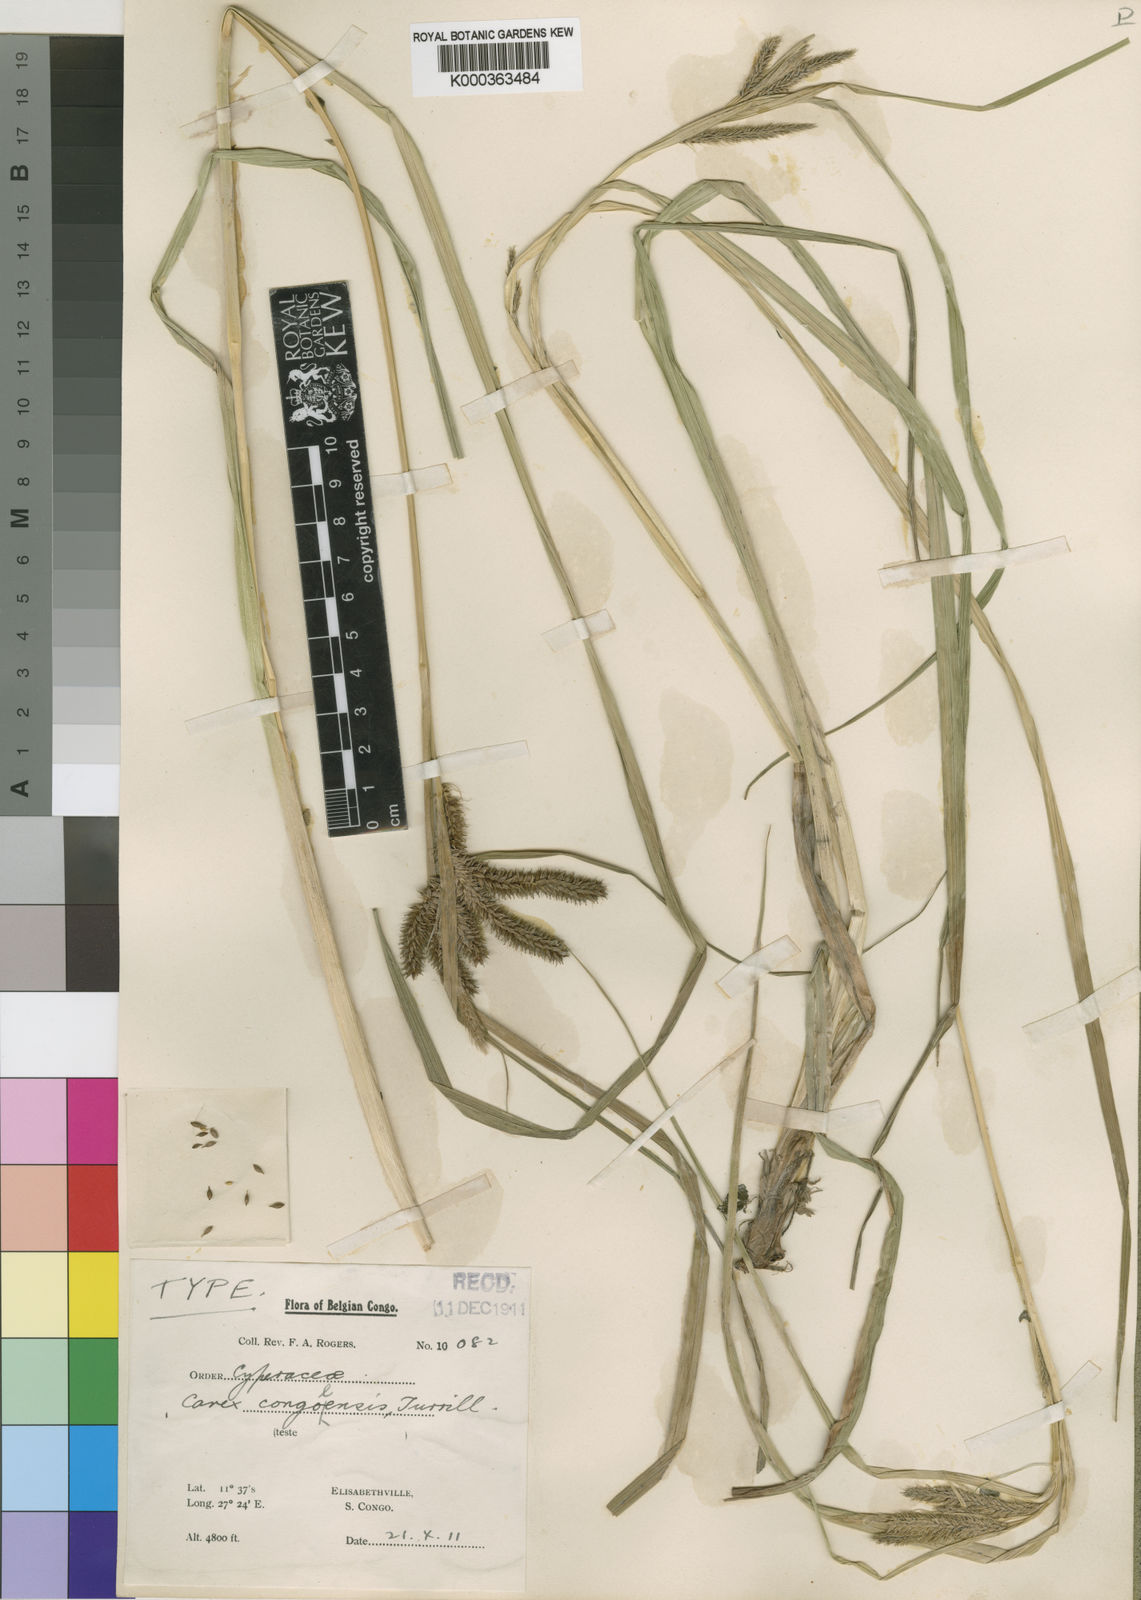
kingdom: Plantae
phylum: Tracheophyta
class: Liliopsida
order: Poales
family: Cyperaceae
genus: Carex
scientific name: Carex congolensis
